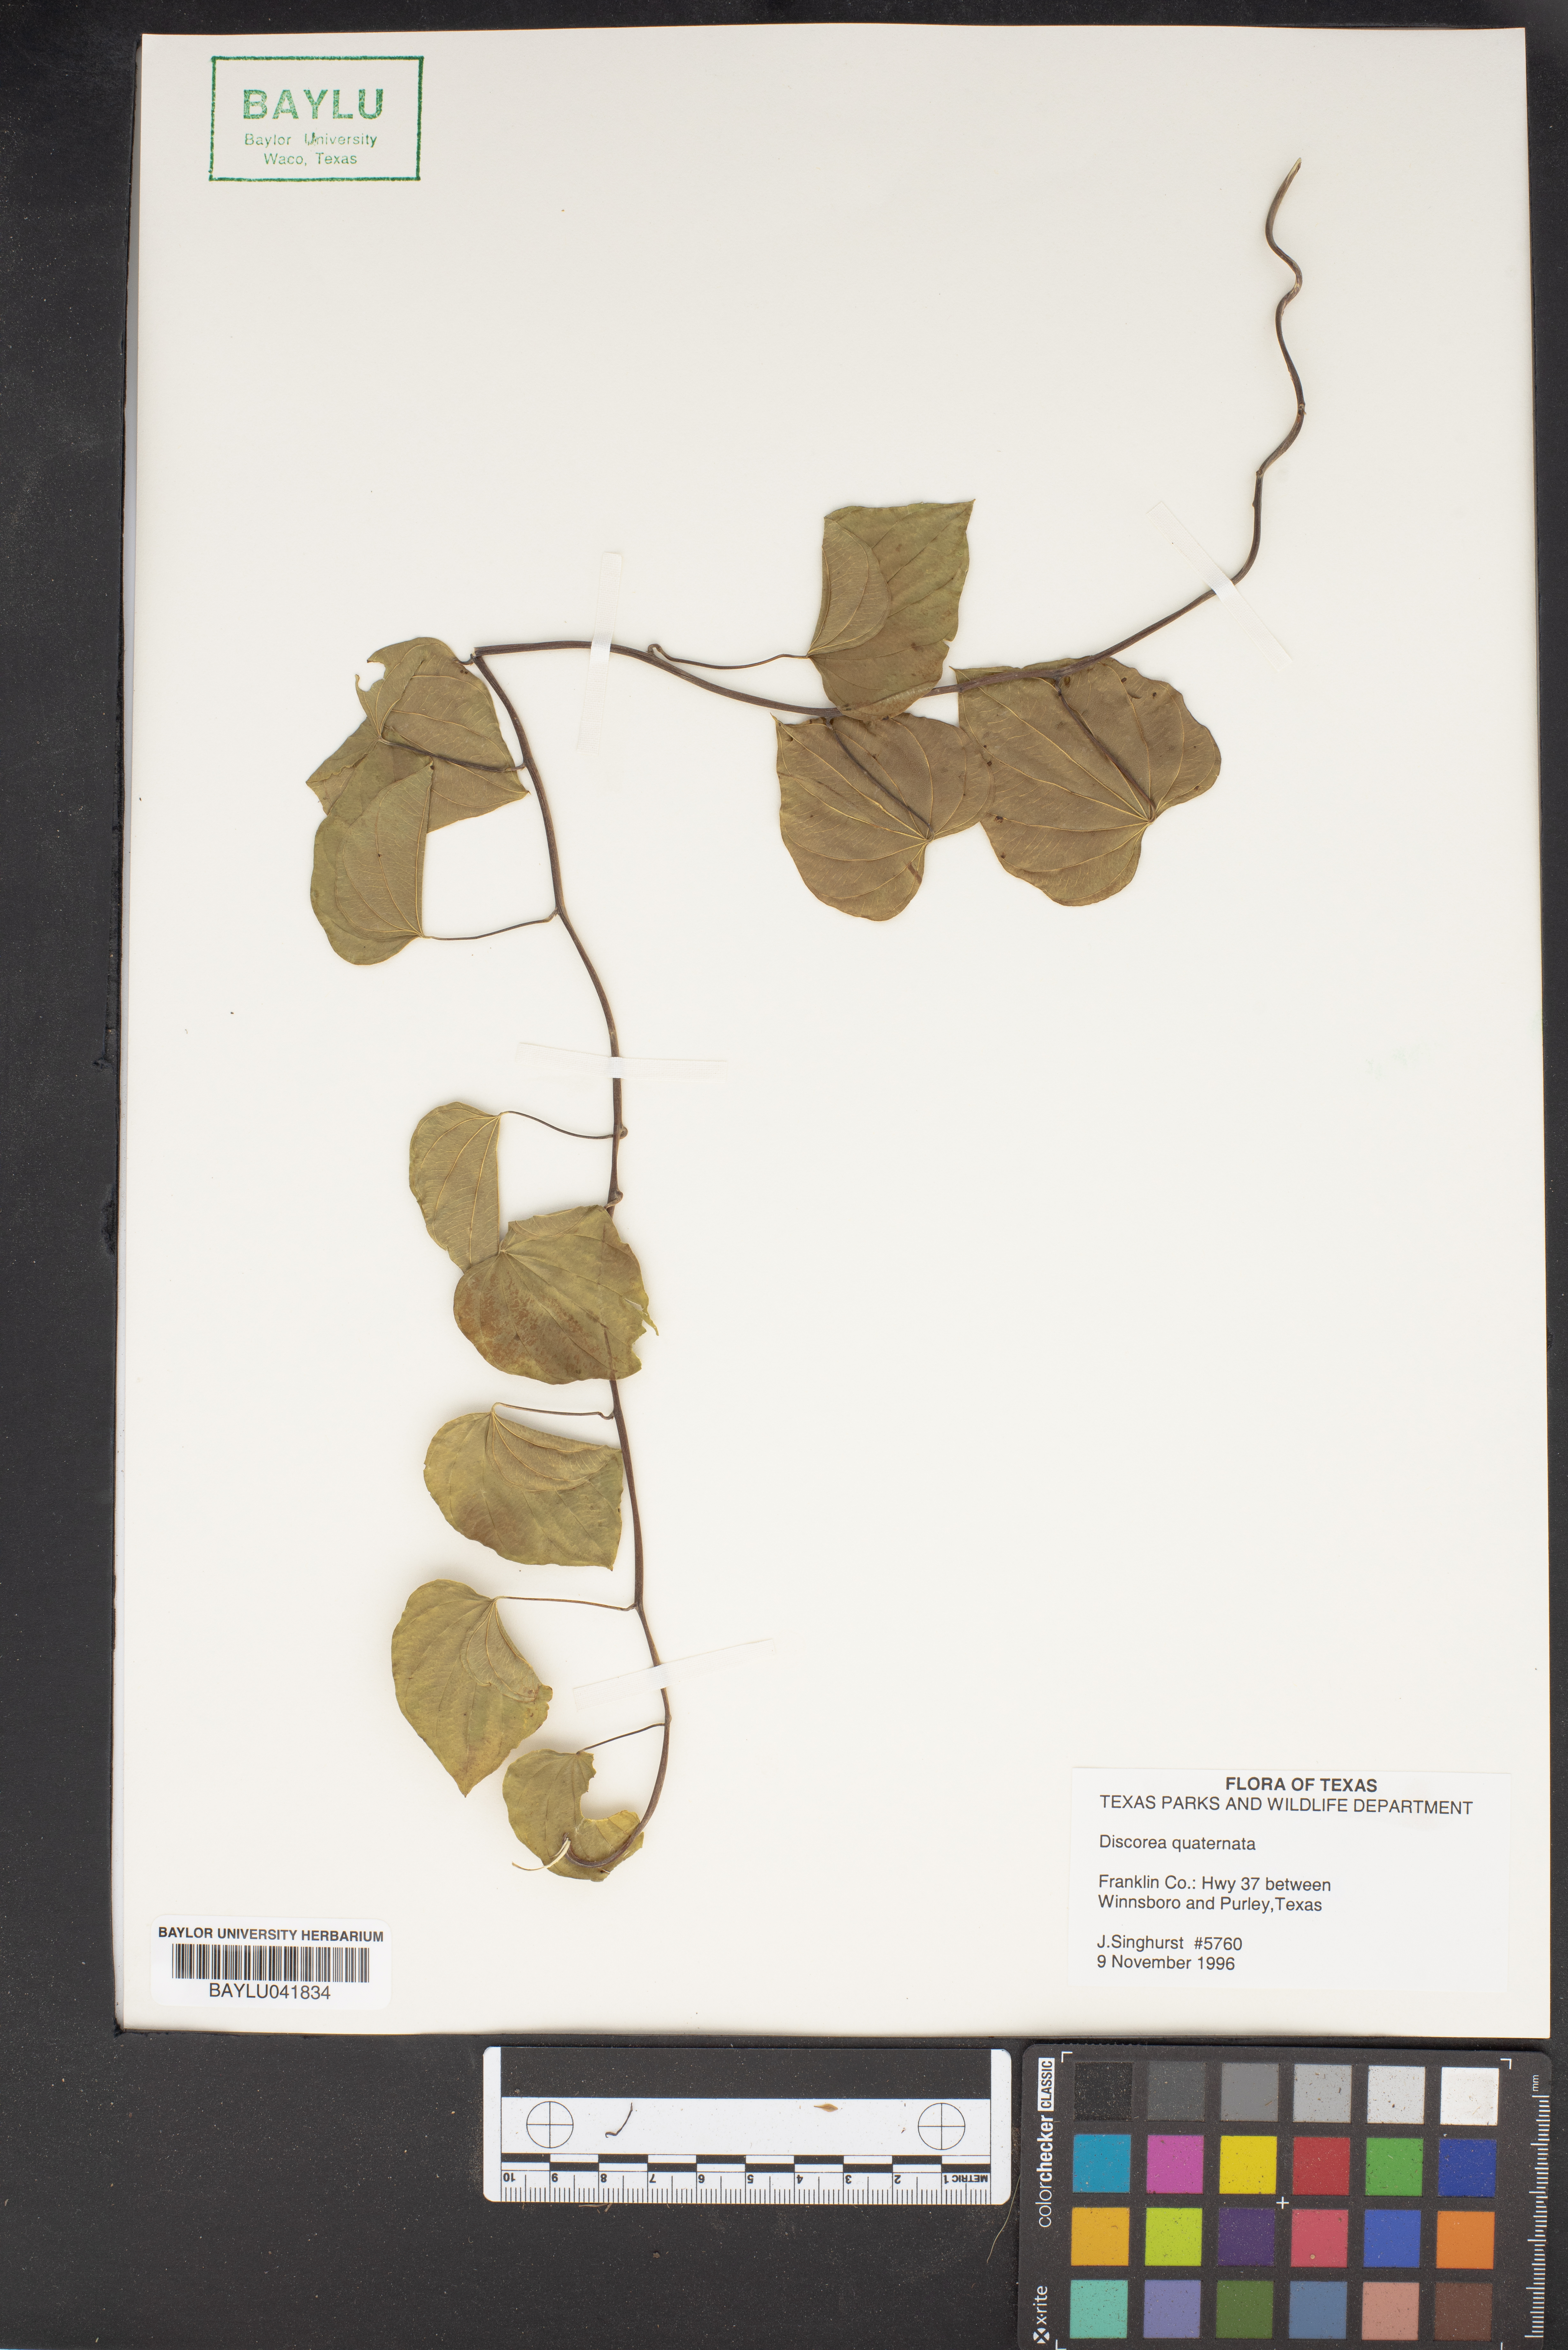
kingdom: Plantae
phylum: Tracheophyta
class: Liliopsida
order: Dioscoreales
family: Dioscoreaceae
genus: Dioscorea
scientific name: Dioscorea quaternata
